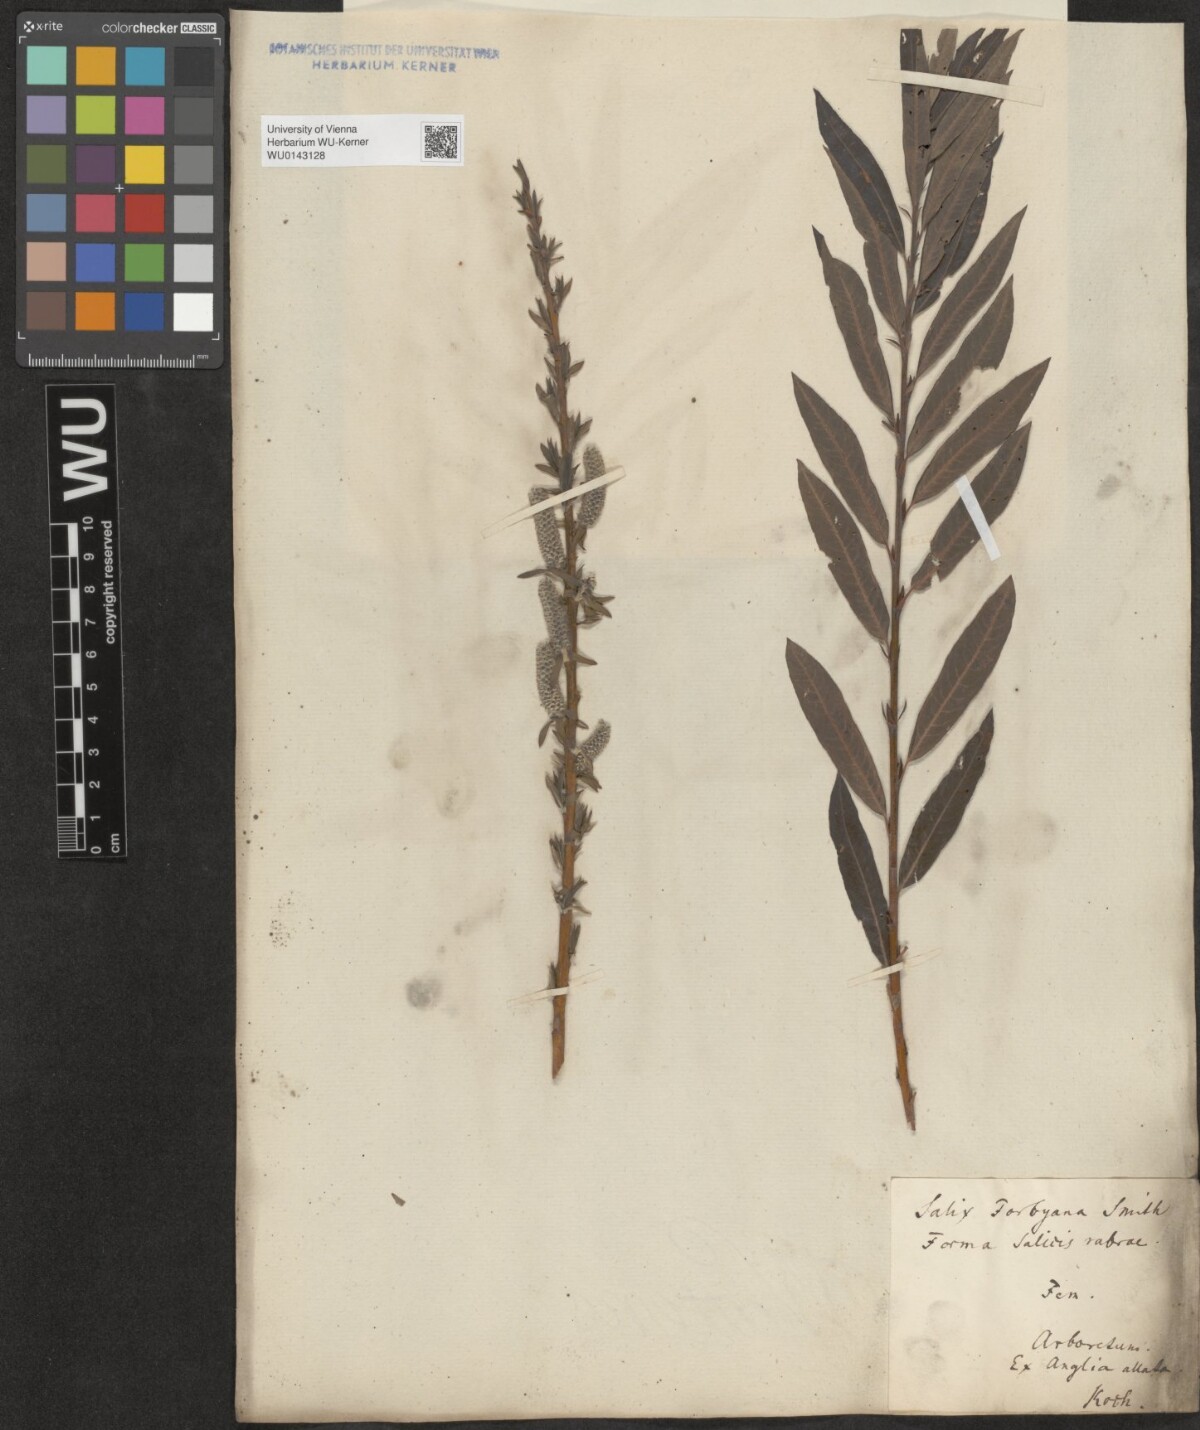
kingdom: Plantae
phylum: Tracheophyta
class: Magnoliopsida
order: Malpighiales
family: Salicaceae
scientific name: Salicaceae
